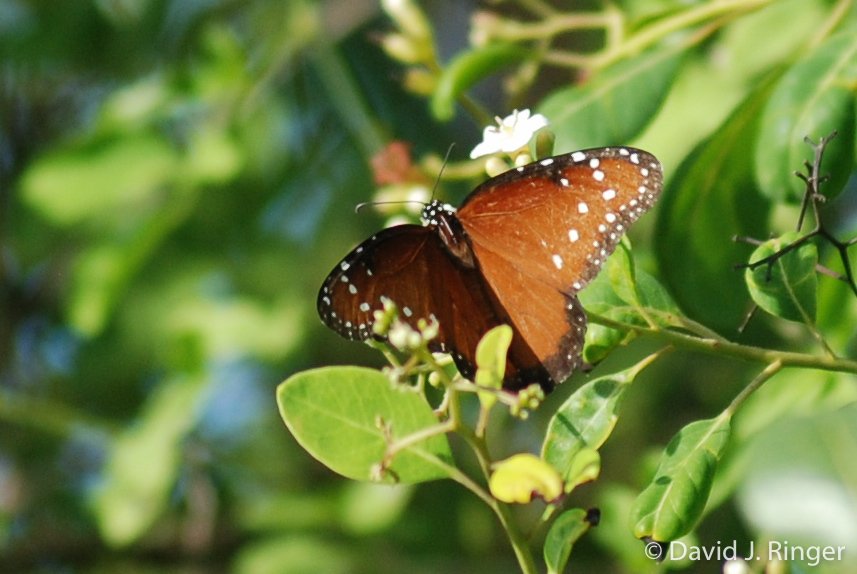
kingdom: Animalia
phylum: Arthropoda
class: Insecta
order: Lepidoptera
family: Nymphalidae
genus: Danaus
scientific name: Danaus gilippus
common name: Queen
